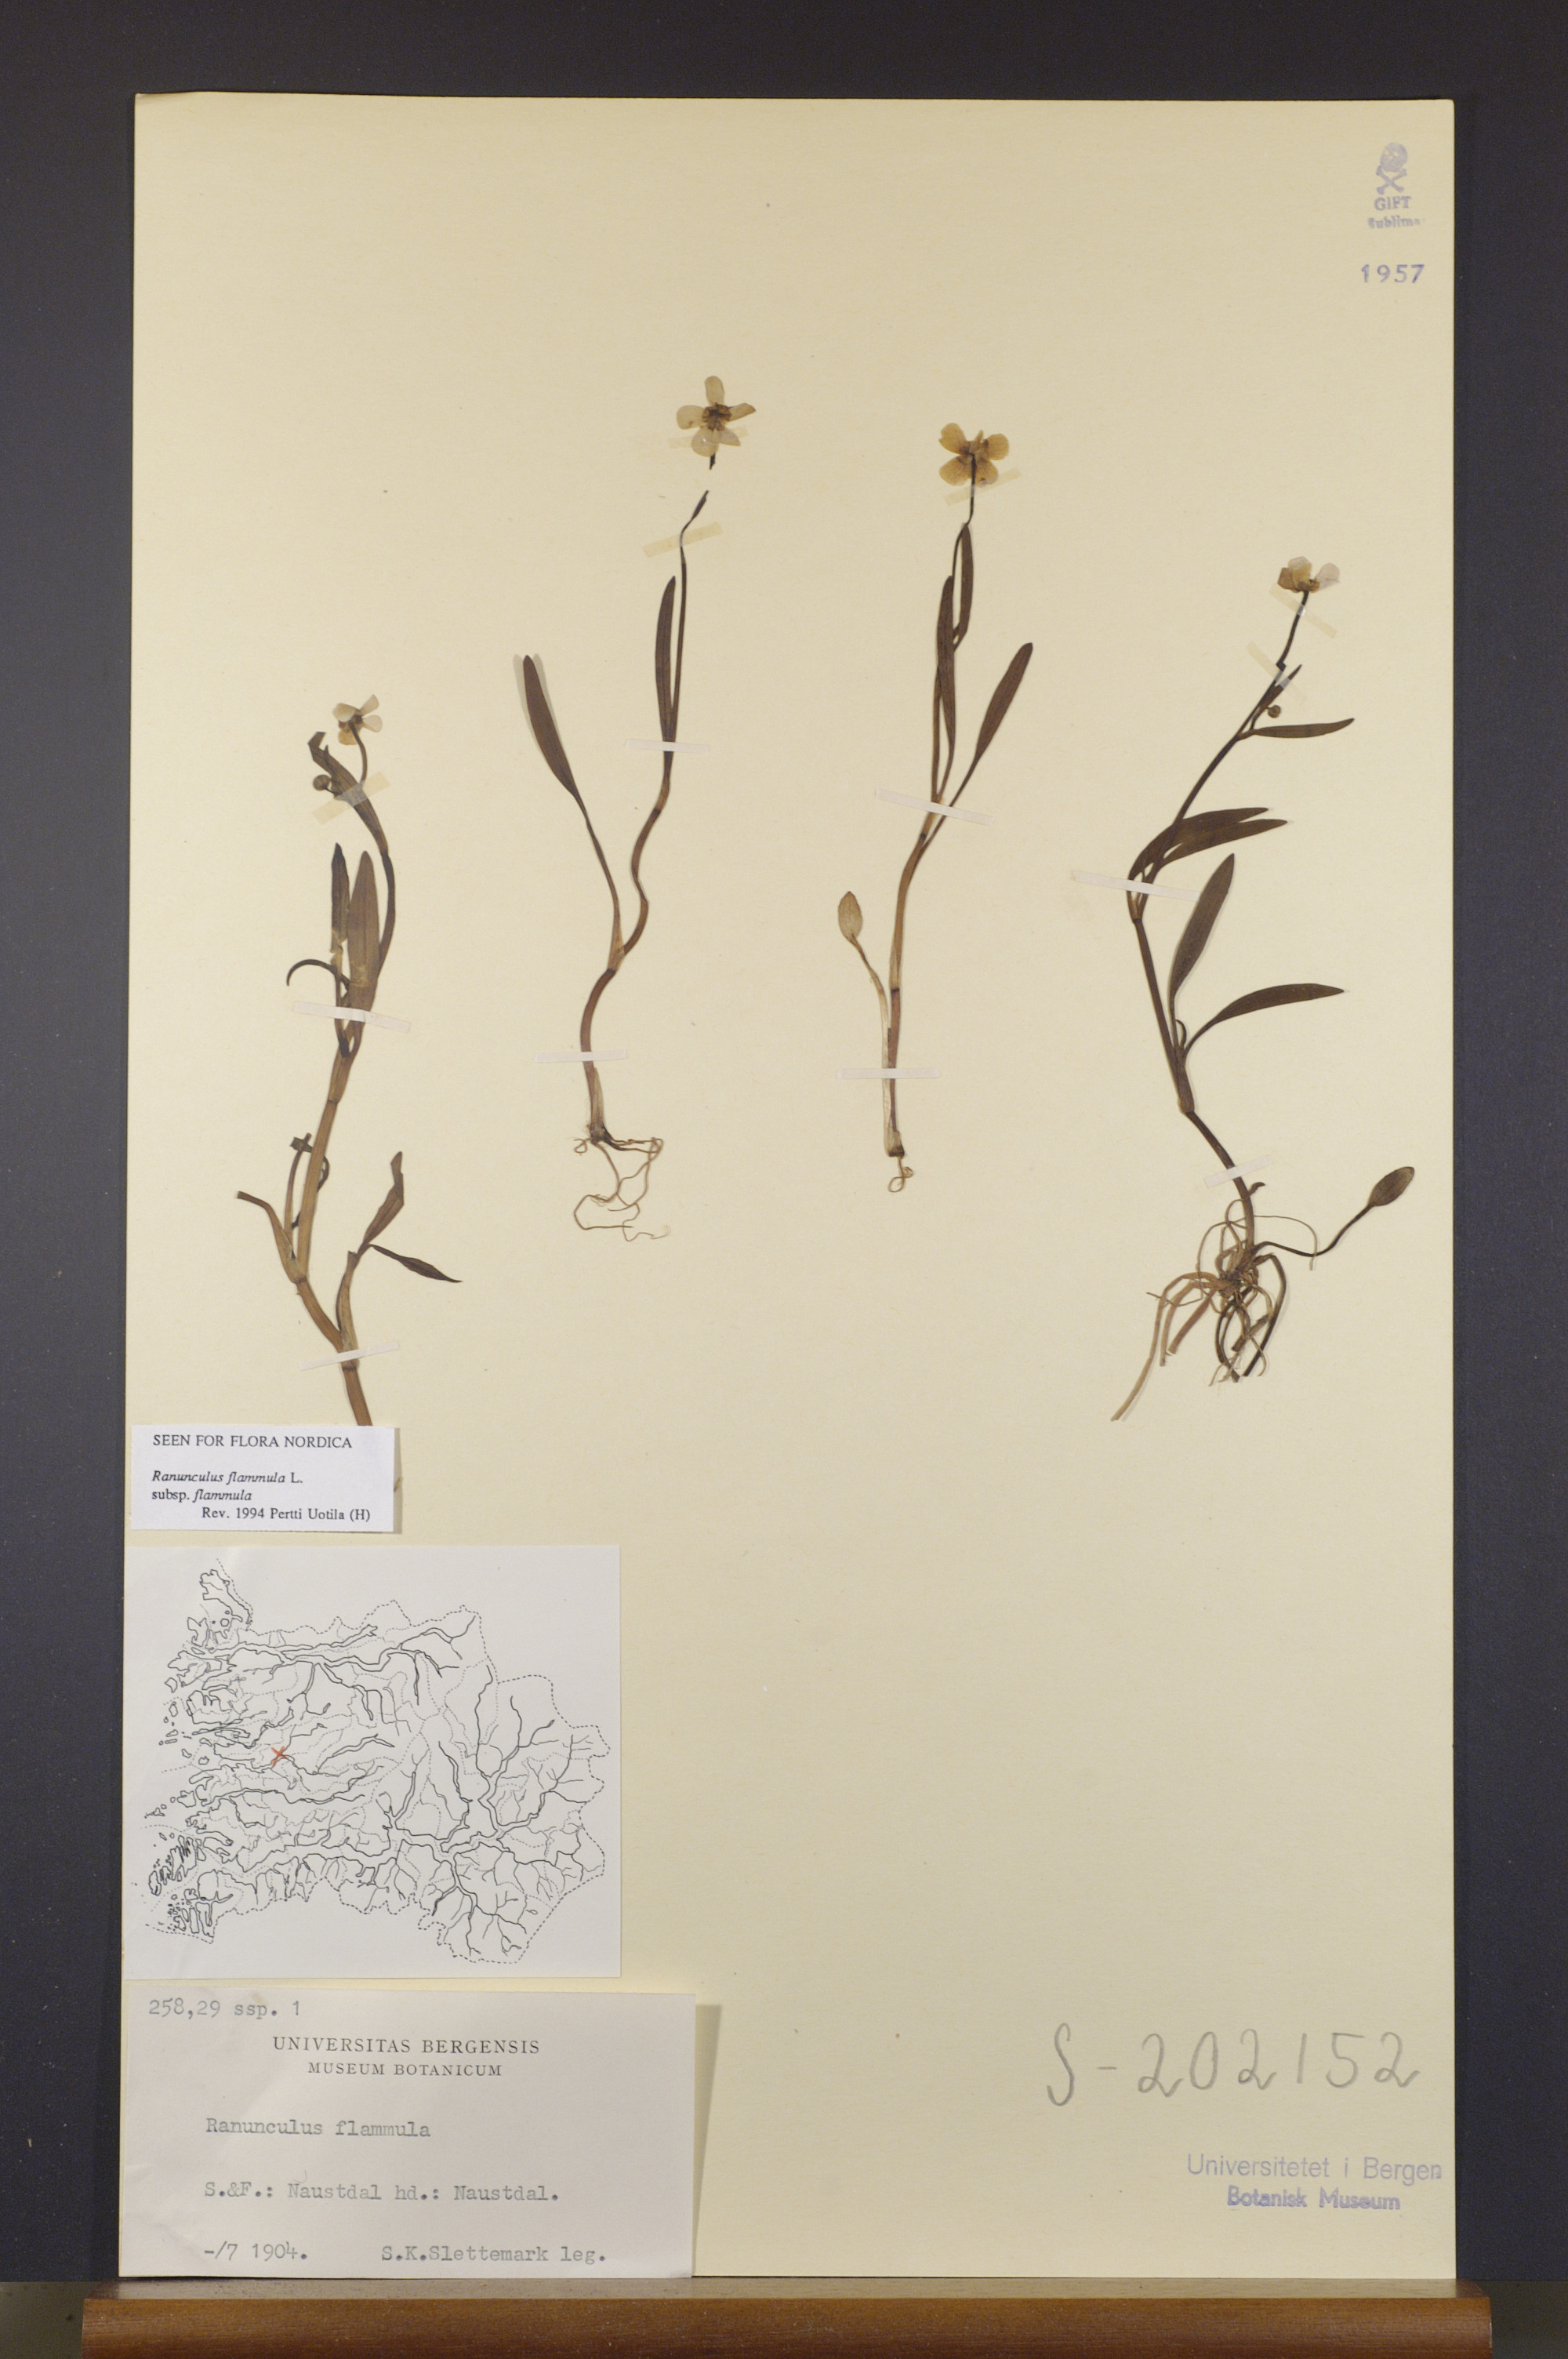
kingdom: Plantae
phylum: Tracheophyta
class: Magnoliopsida
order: Ranunculales
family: Ranunculaceae
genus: Ranunculus
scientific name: Ranunculus flammula
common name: Lesser spearwort
